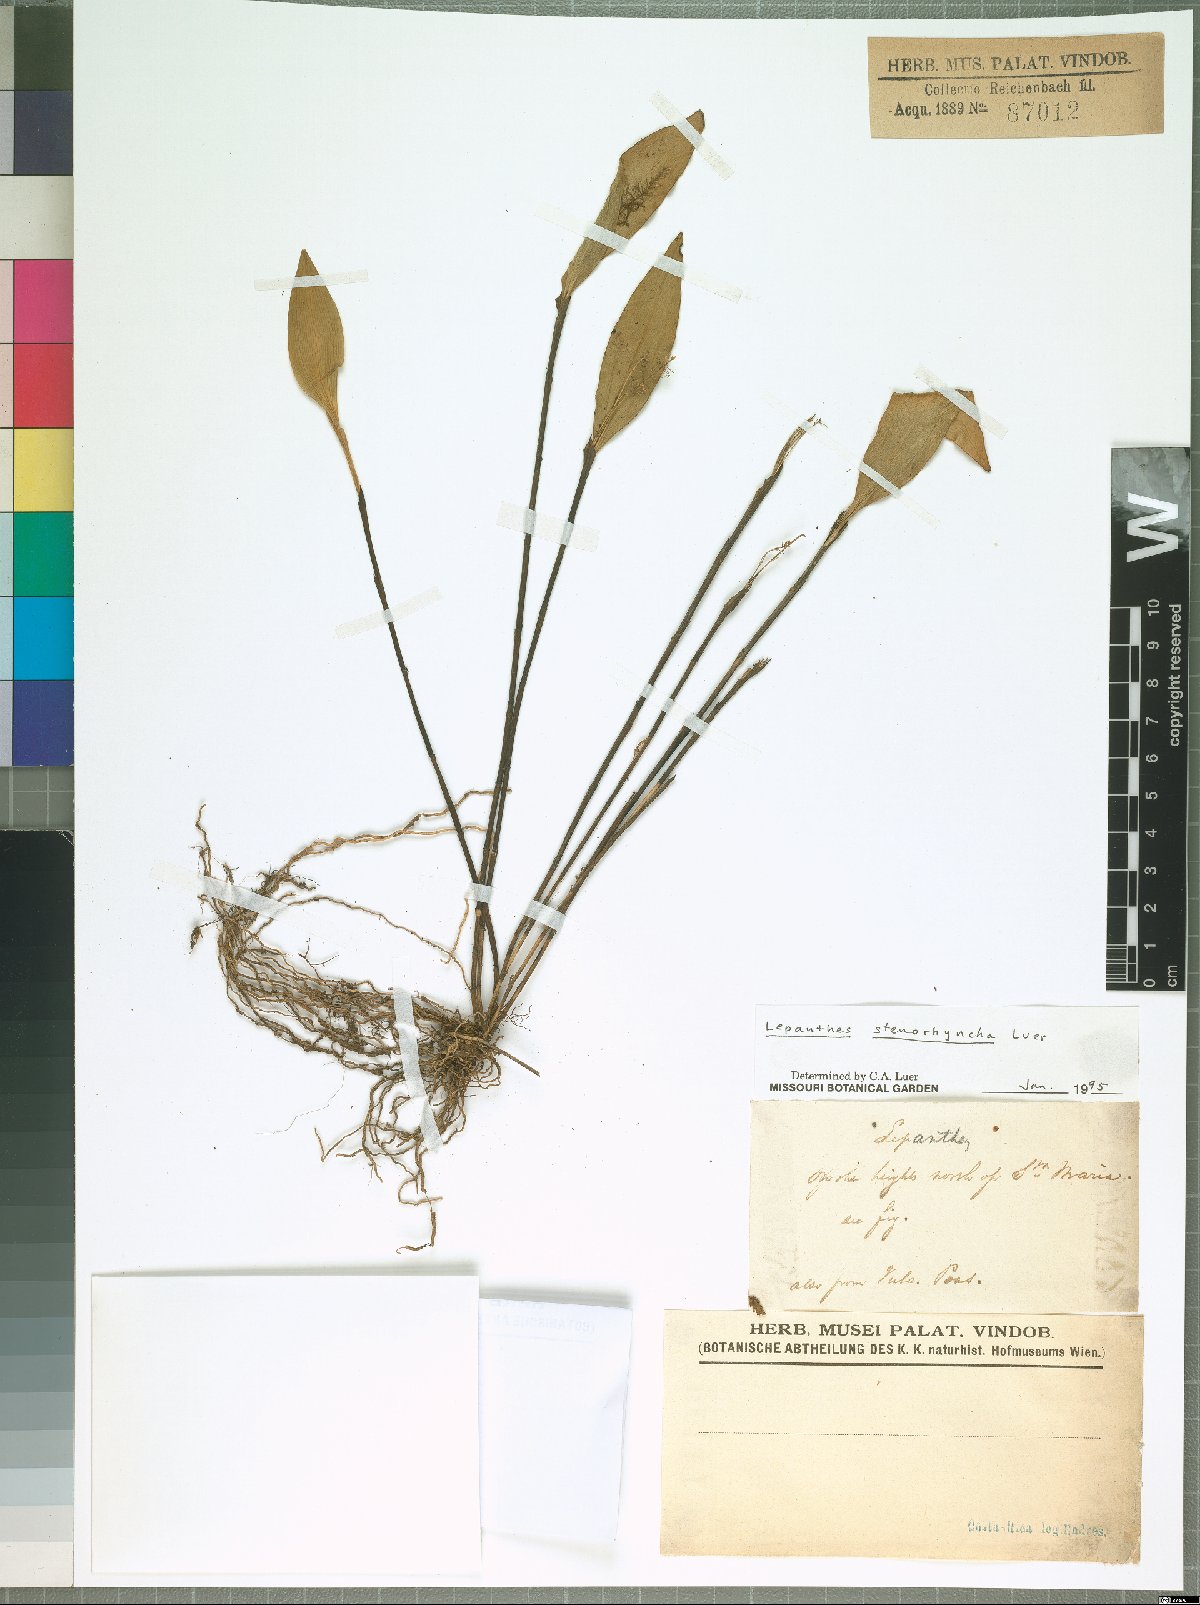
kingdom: Plantae
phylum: Tracheophyta
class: Liliopsida
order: Asparagales
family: Orchidaceae
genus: Lepanthes
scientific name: Lepanthes stenorhyncha
